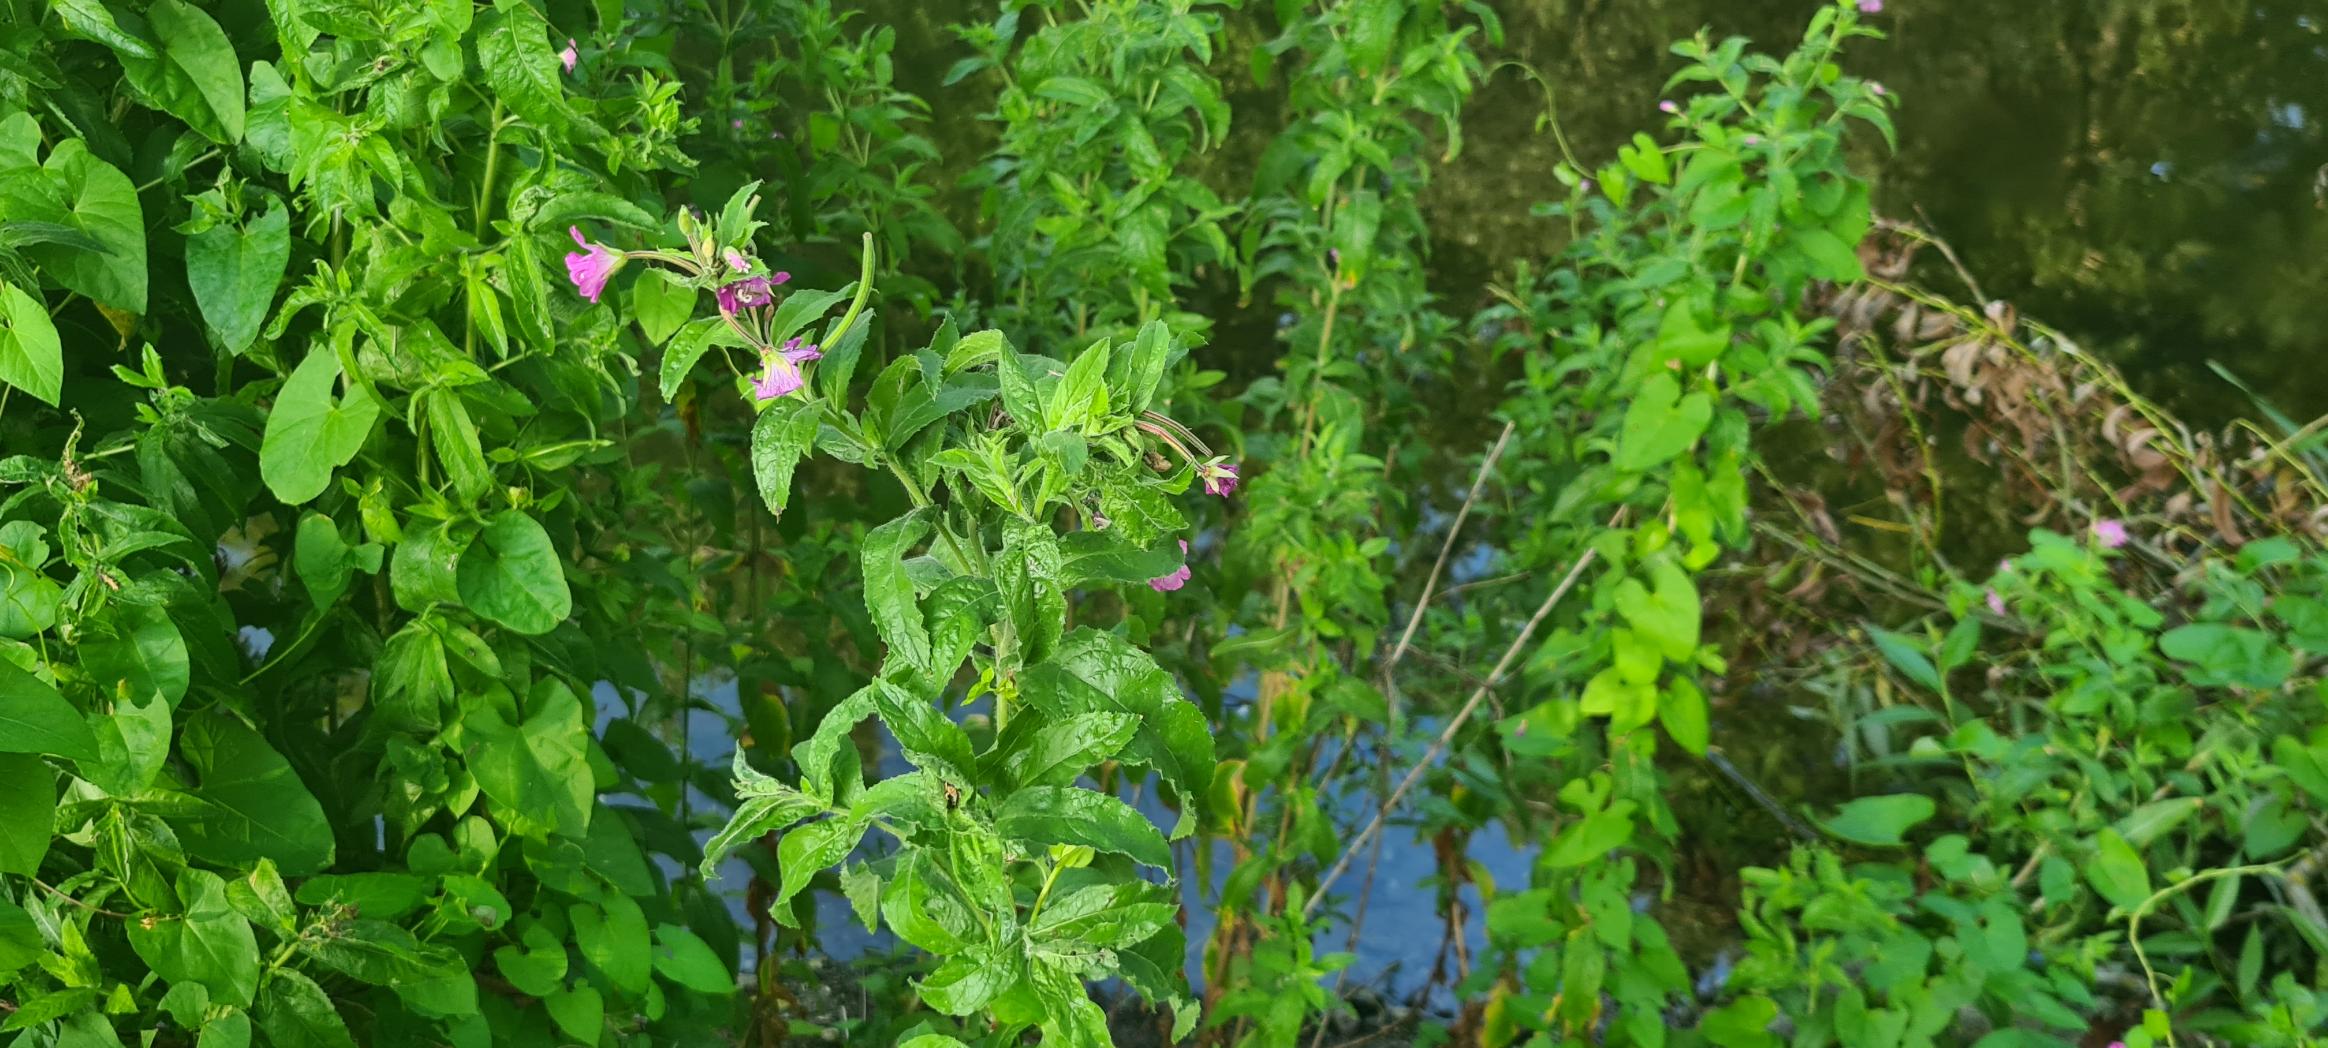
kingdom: Plantae
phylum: Tracheophyta
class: Magnoliopsida
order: Myrtales
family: Onagraceae
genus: Epilobium
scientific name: Epilobium hirsutum
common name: Lådden dueurt
